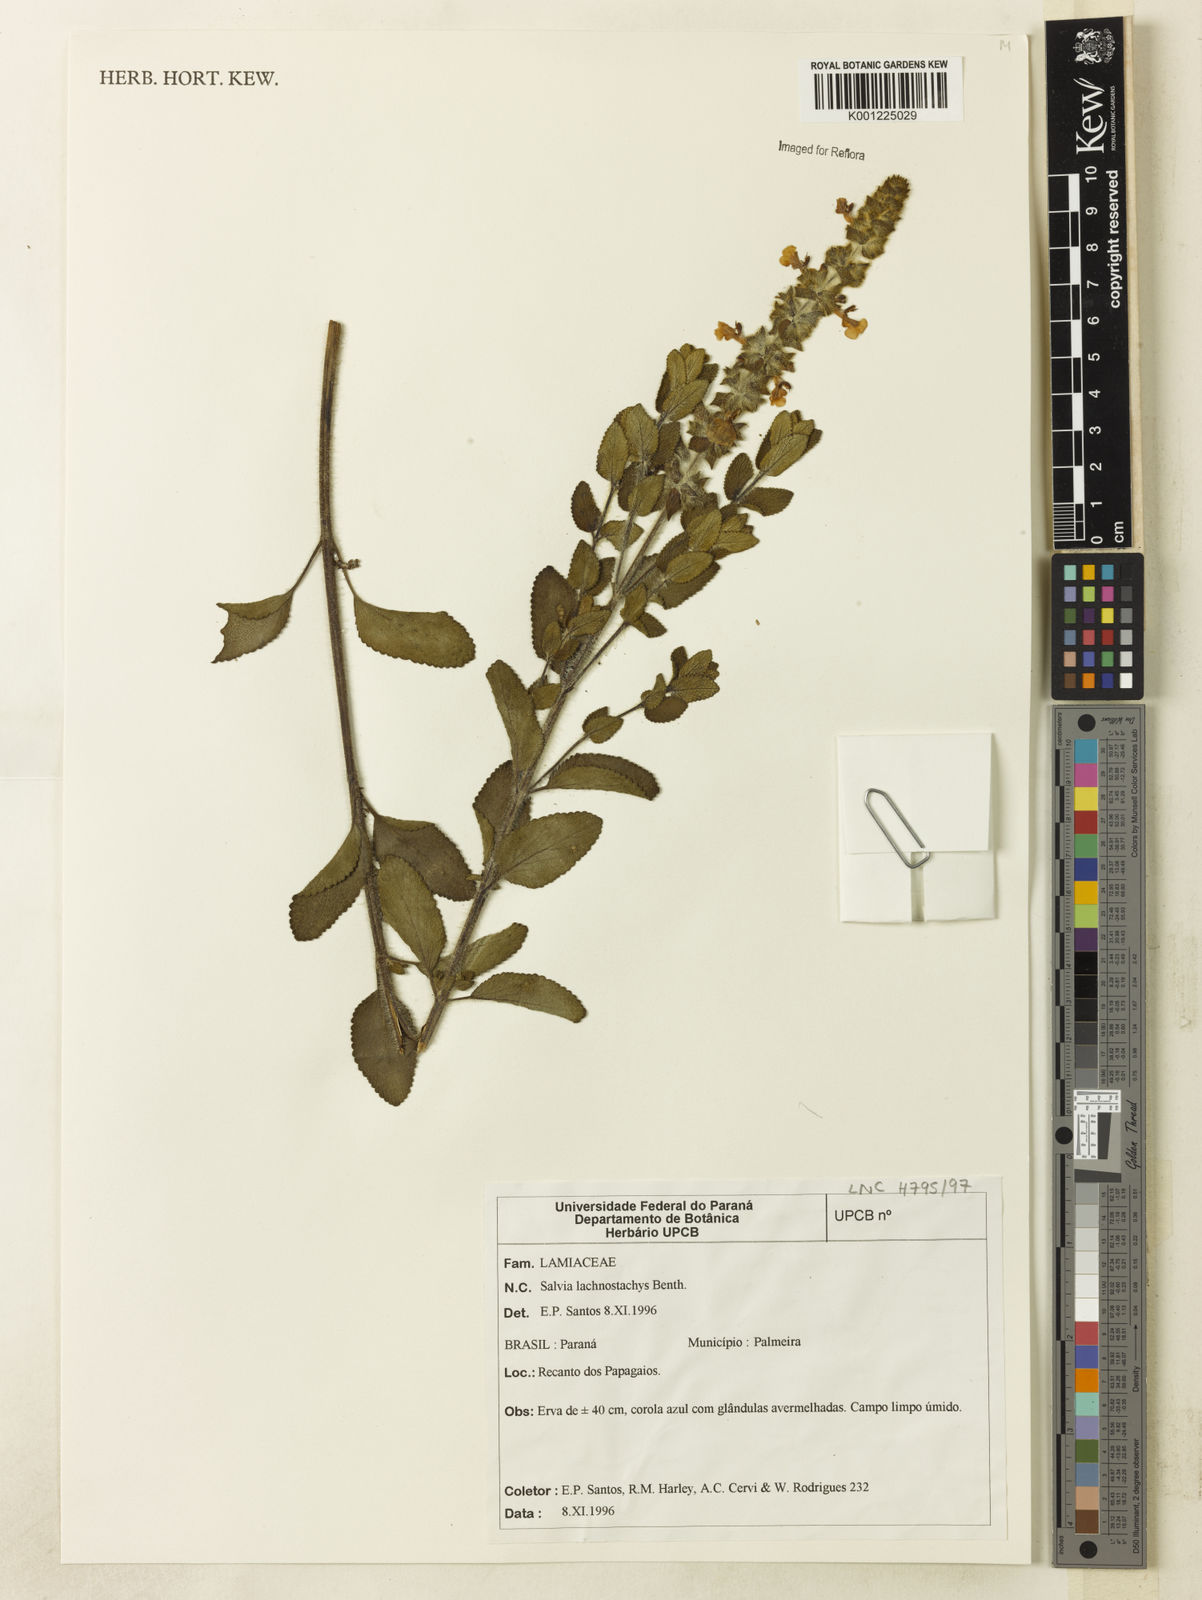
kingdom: Plantae
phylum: Tracheophyta
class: Magnoliopsida
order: Lamiales
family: Lamiaceae
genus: Salvia
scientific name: Salvia lachnostachys
